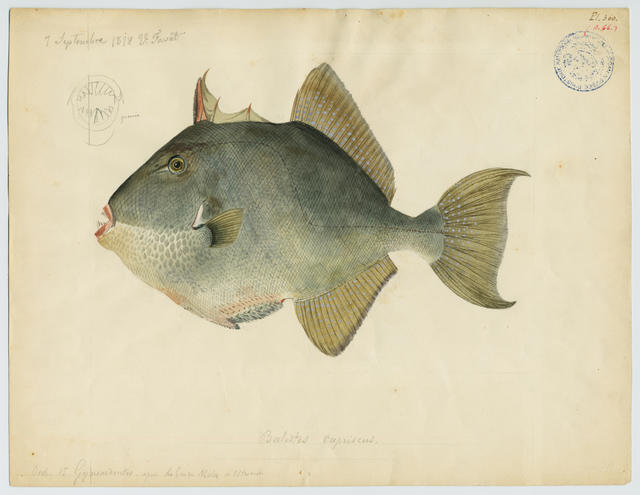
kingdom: Animalia
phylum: Chordata
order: Tetraodontiformes
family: Balistidae
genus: Balistes
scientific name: Balistes capriscus
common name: Grey triggerfish
